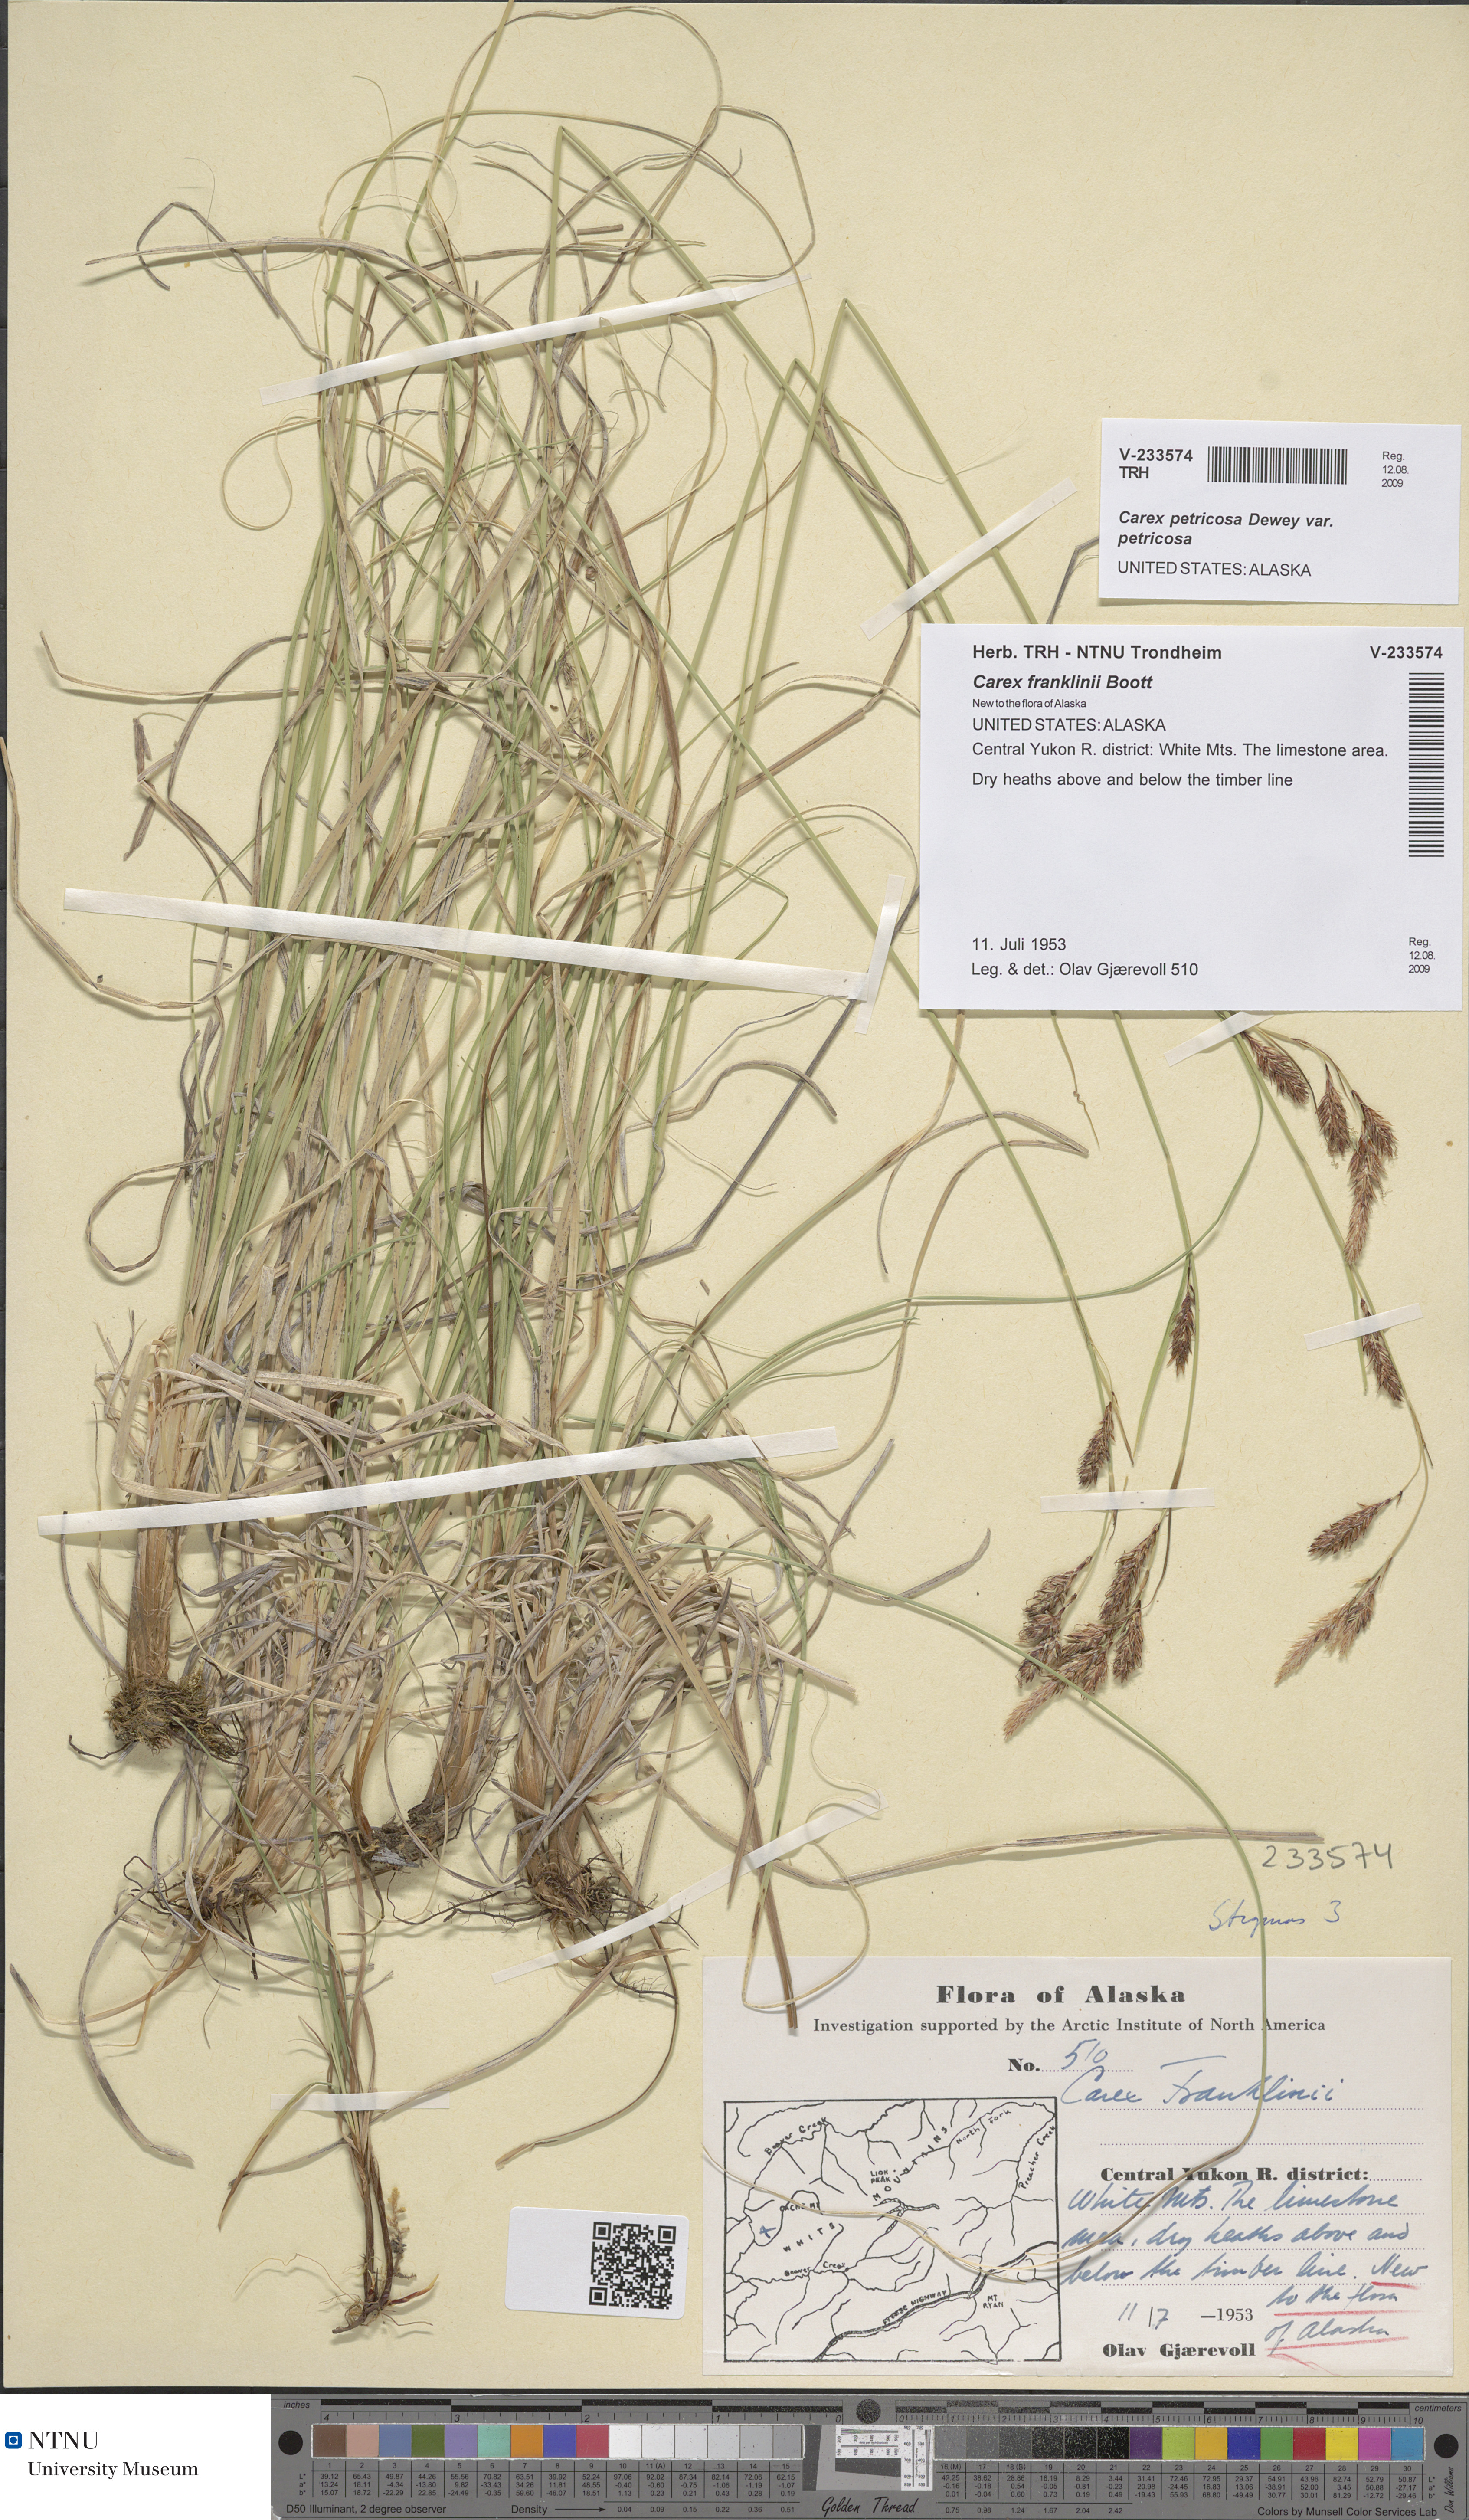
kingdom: Plantae
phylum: Tracheophyta
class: Liliopsida
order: Poales
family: Cyperaceae
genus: Carex
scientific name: Carex petricosa
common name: Rock sedge
